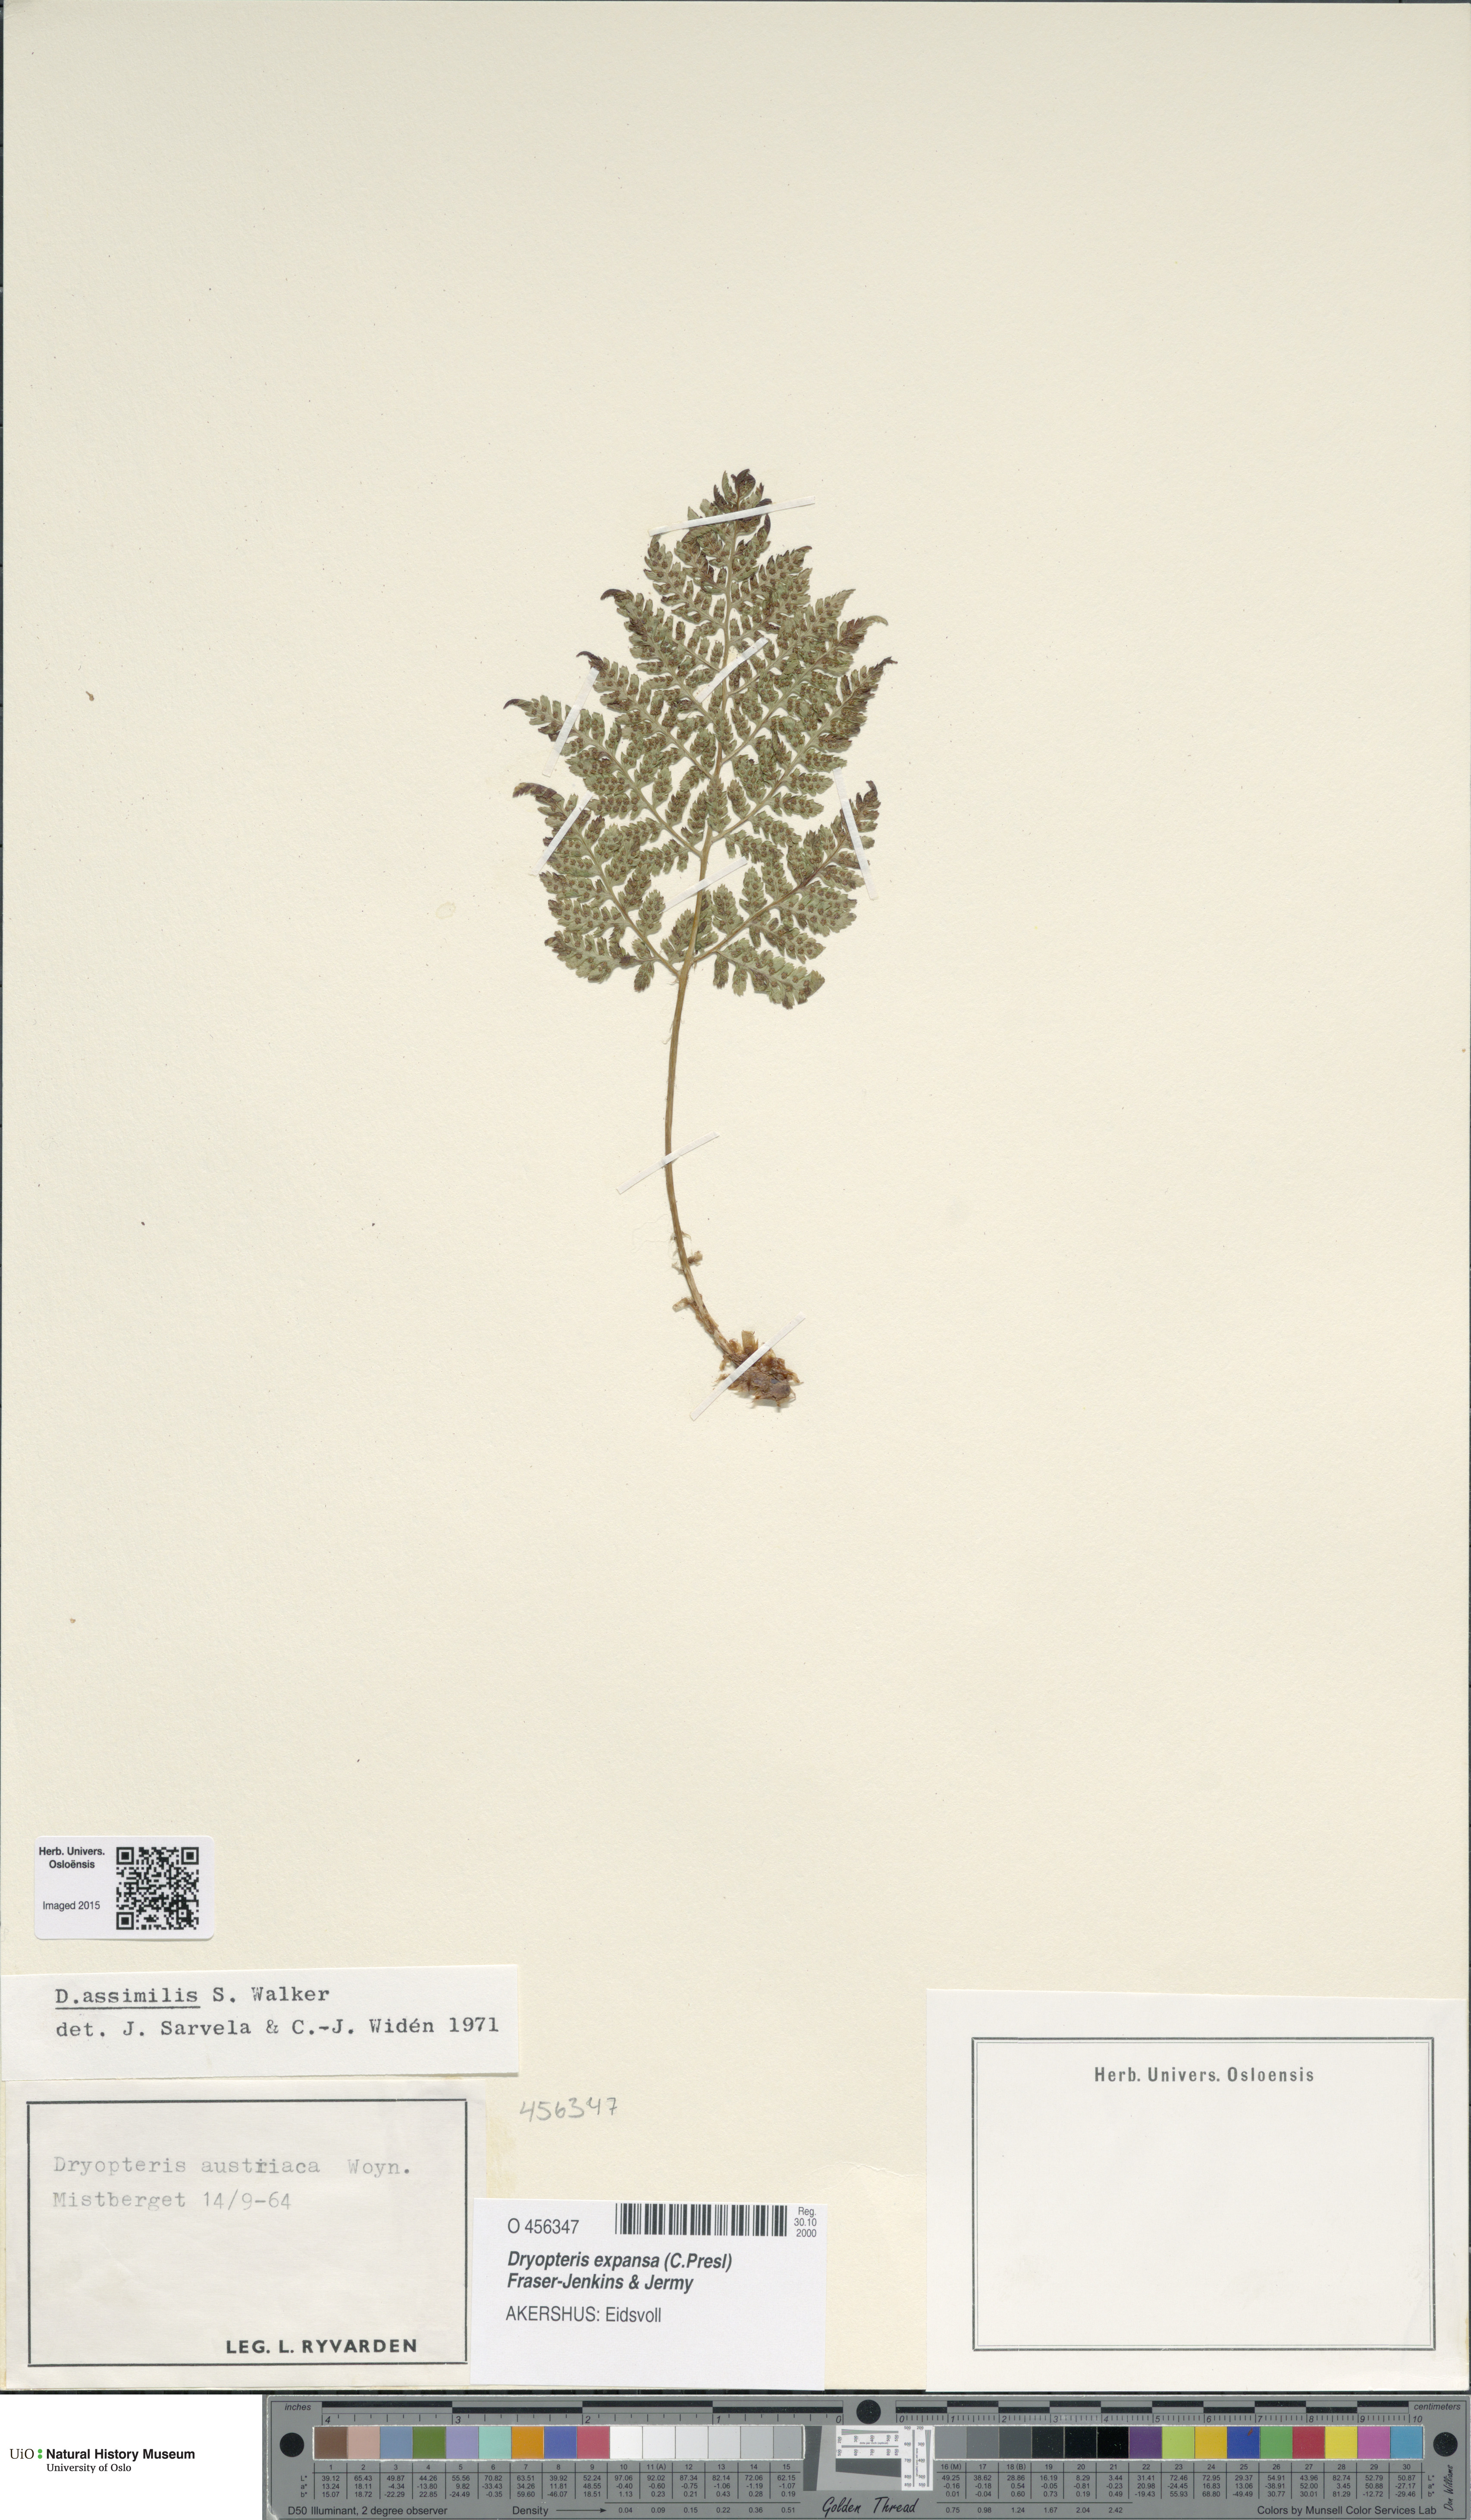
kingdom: Plantae
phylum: Tracheophyta
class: Polypodiopsida
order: Polypodiales
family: Dryopteridaceae
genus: Dryopteris
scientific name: Dryopteris expansa
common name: Northern buckler fern
